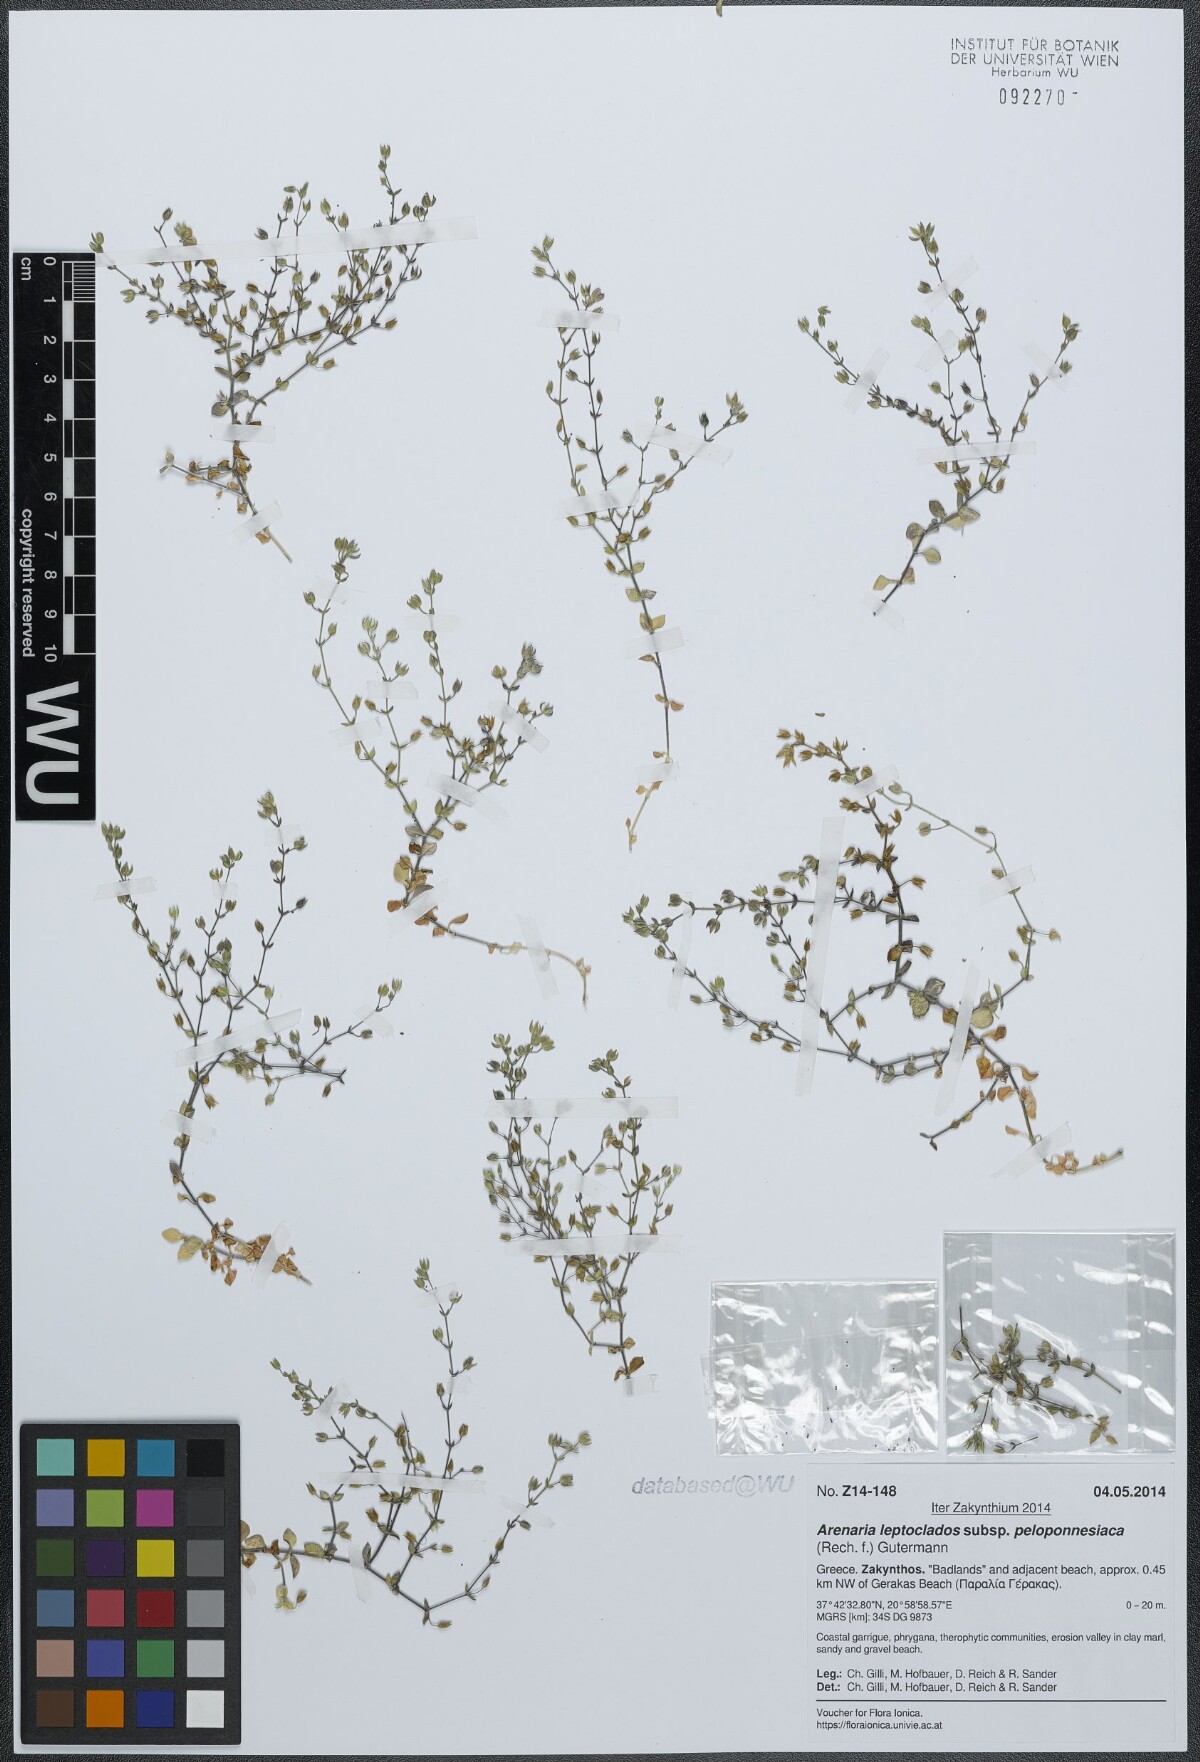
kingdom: Plantae
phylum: Tracheophyta
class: Magnoliopsida
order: Caryophyllales
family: Caryophyllaceae
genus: Arenaria
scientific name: Arenaria leptoclados
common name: Thyme-leaved sandwort
